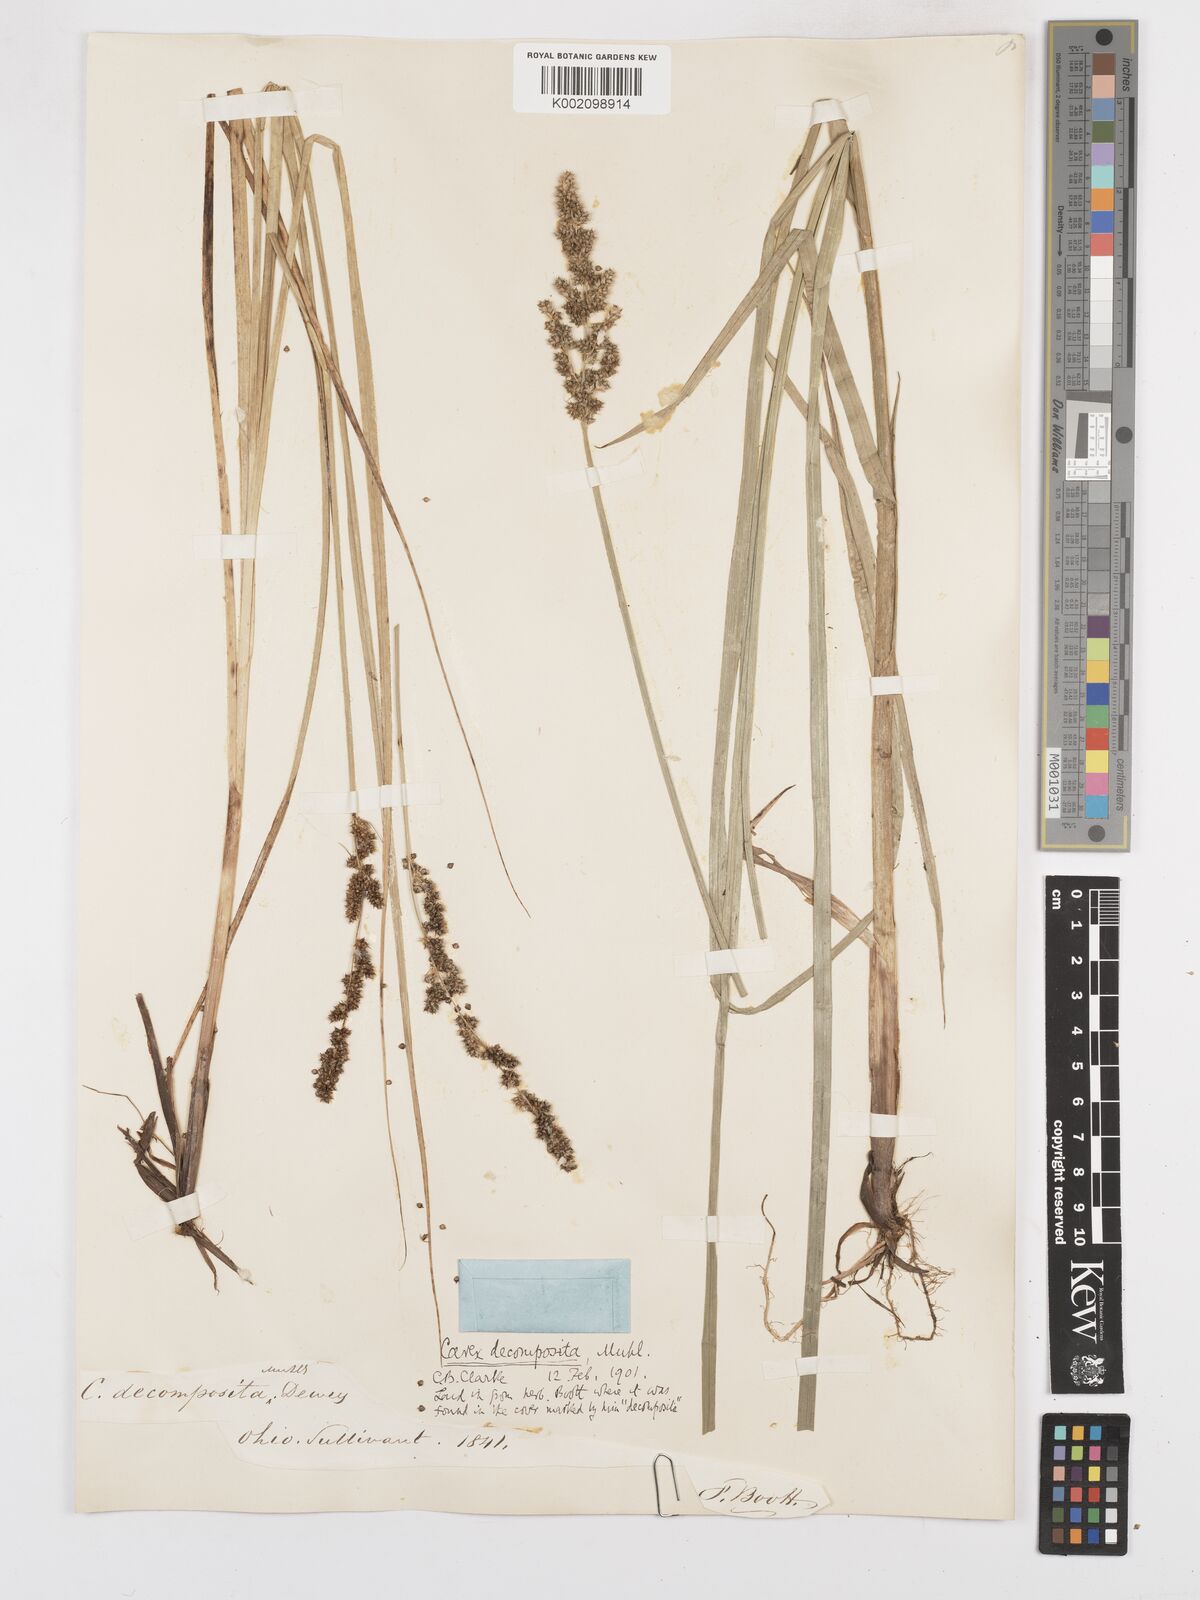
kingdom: Plantae
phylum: Tracheophyta
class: Liliopsida
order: Poales
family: Cyperaceae
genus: Carex
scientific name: Carex decomposita
